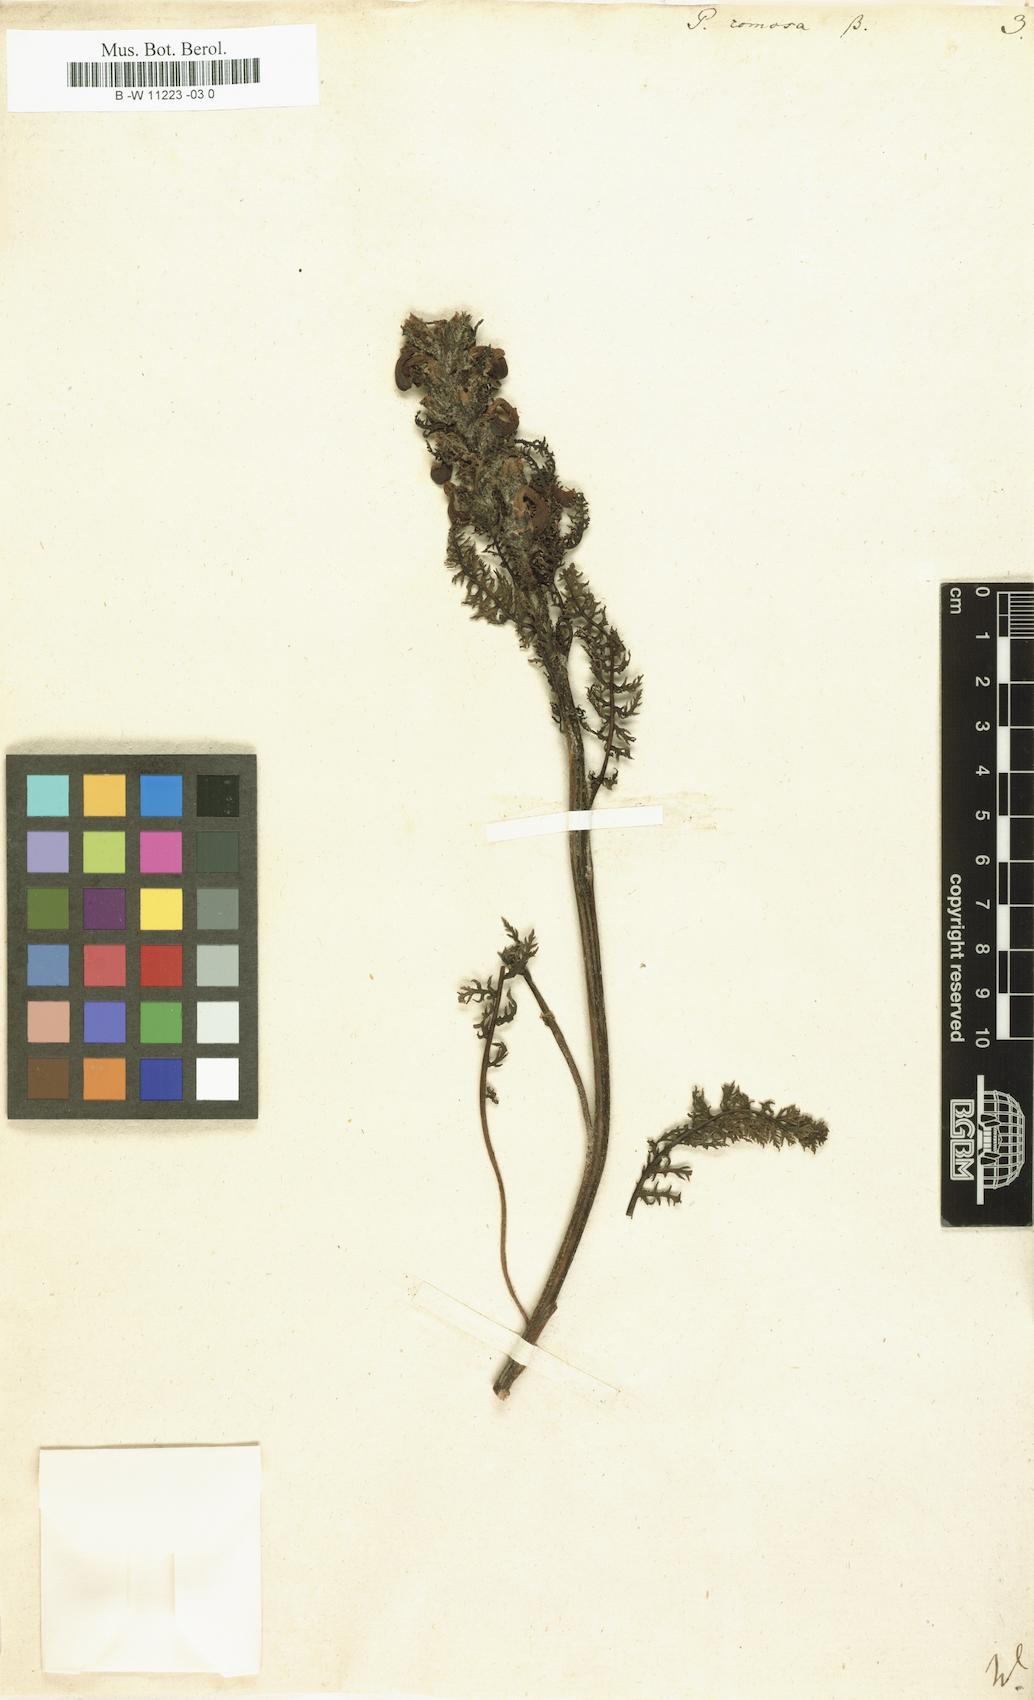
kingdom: Plantae
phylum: Tracheophyta
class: Magnoliopsida
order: Lamiales
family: Orobanchaceae
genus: Pedicularis
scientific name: Pedicularis comosa
